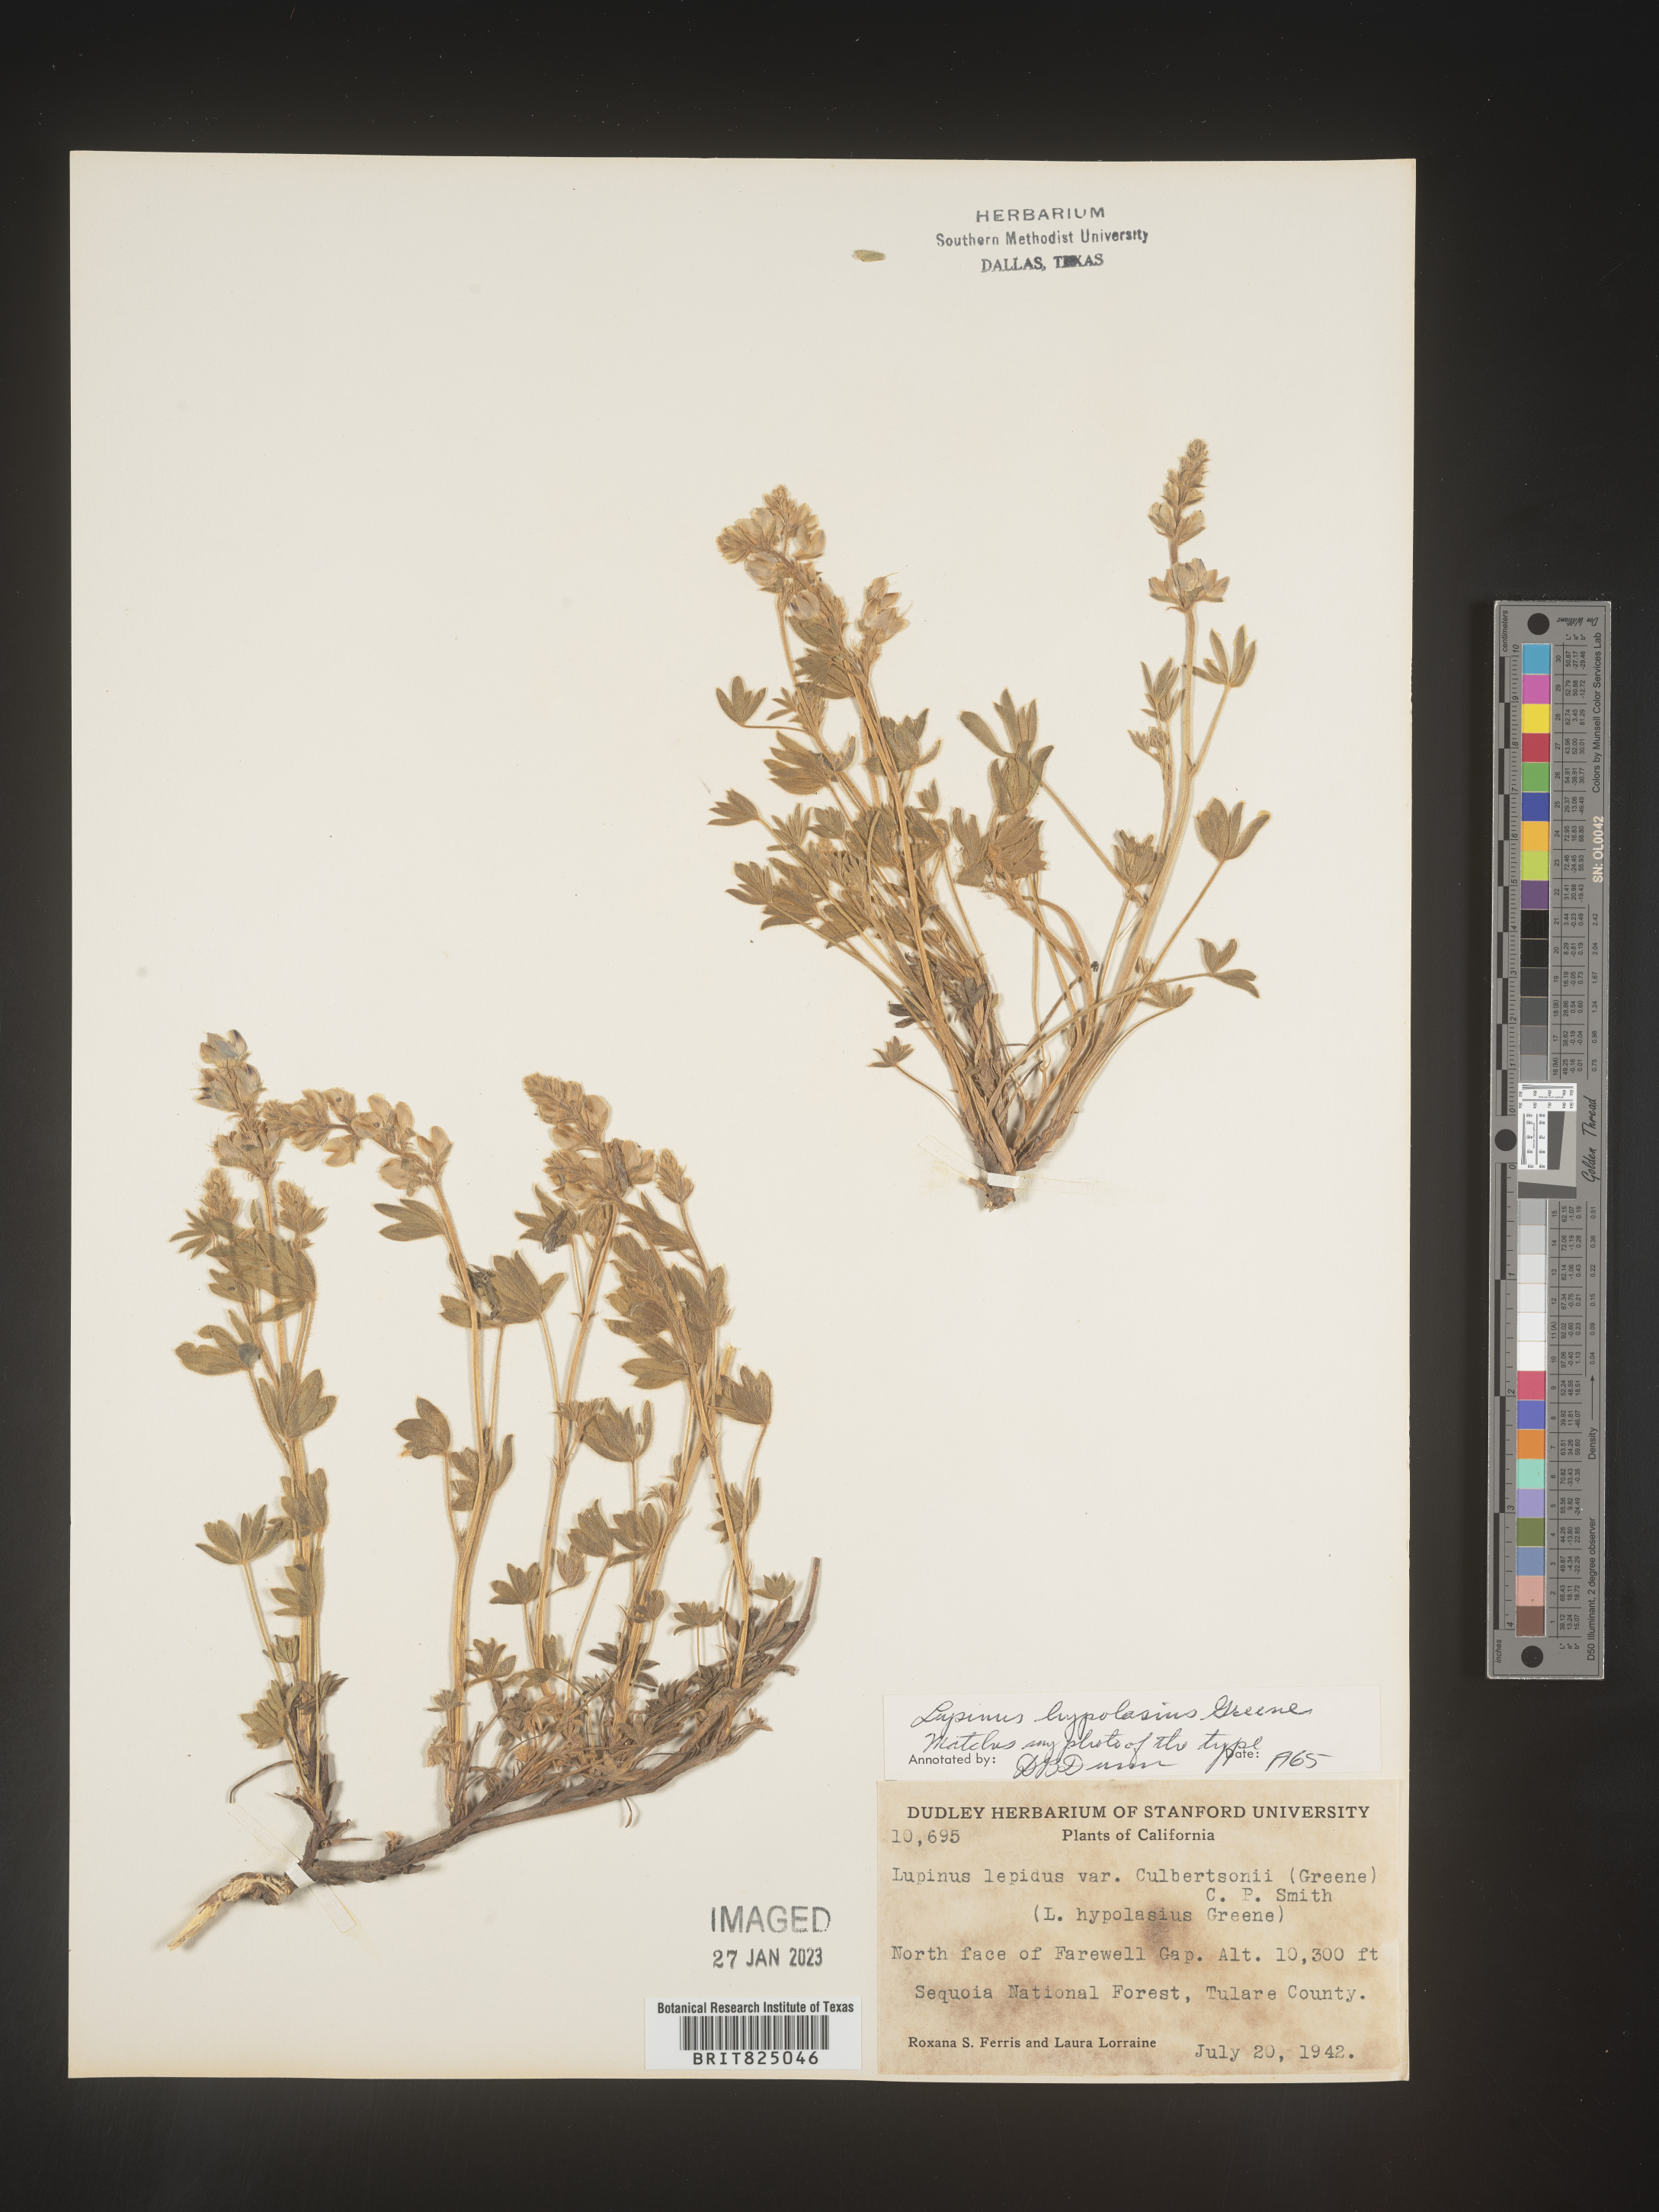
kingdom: Plantae
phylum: Tracheophyta
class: Magnoliopsida
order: Fabales
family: Fabaceae
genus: Lupinus
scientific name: Lupinus
